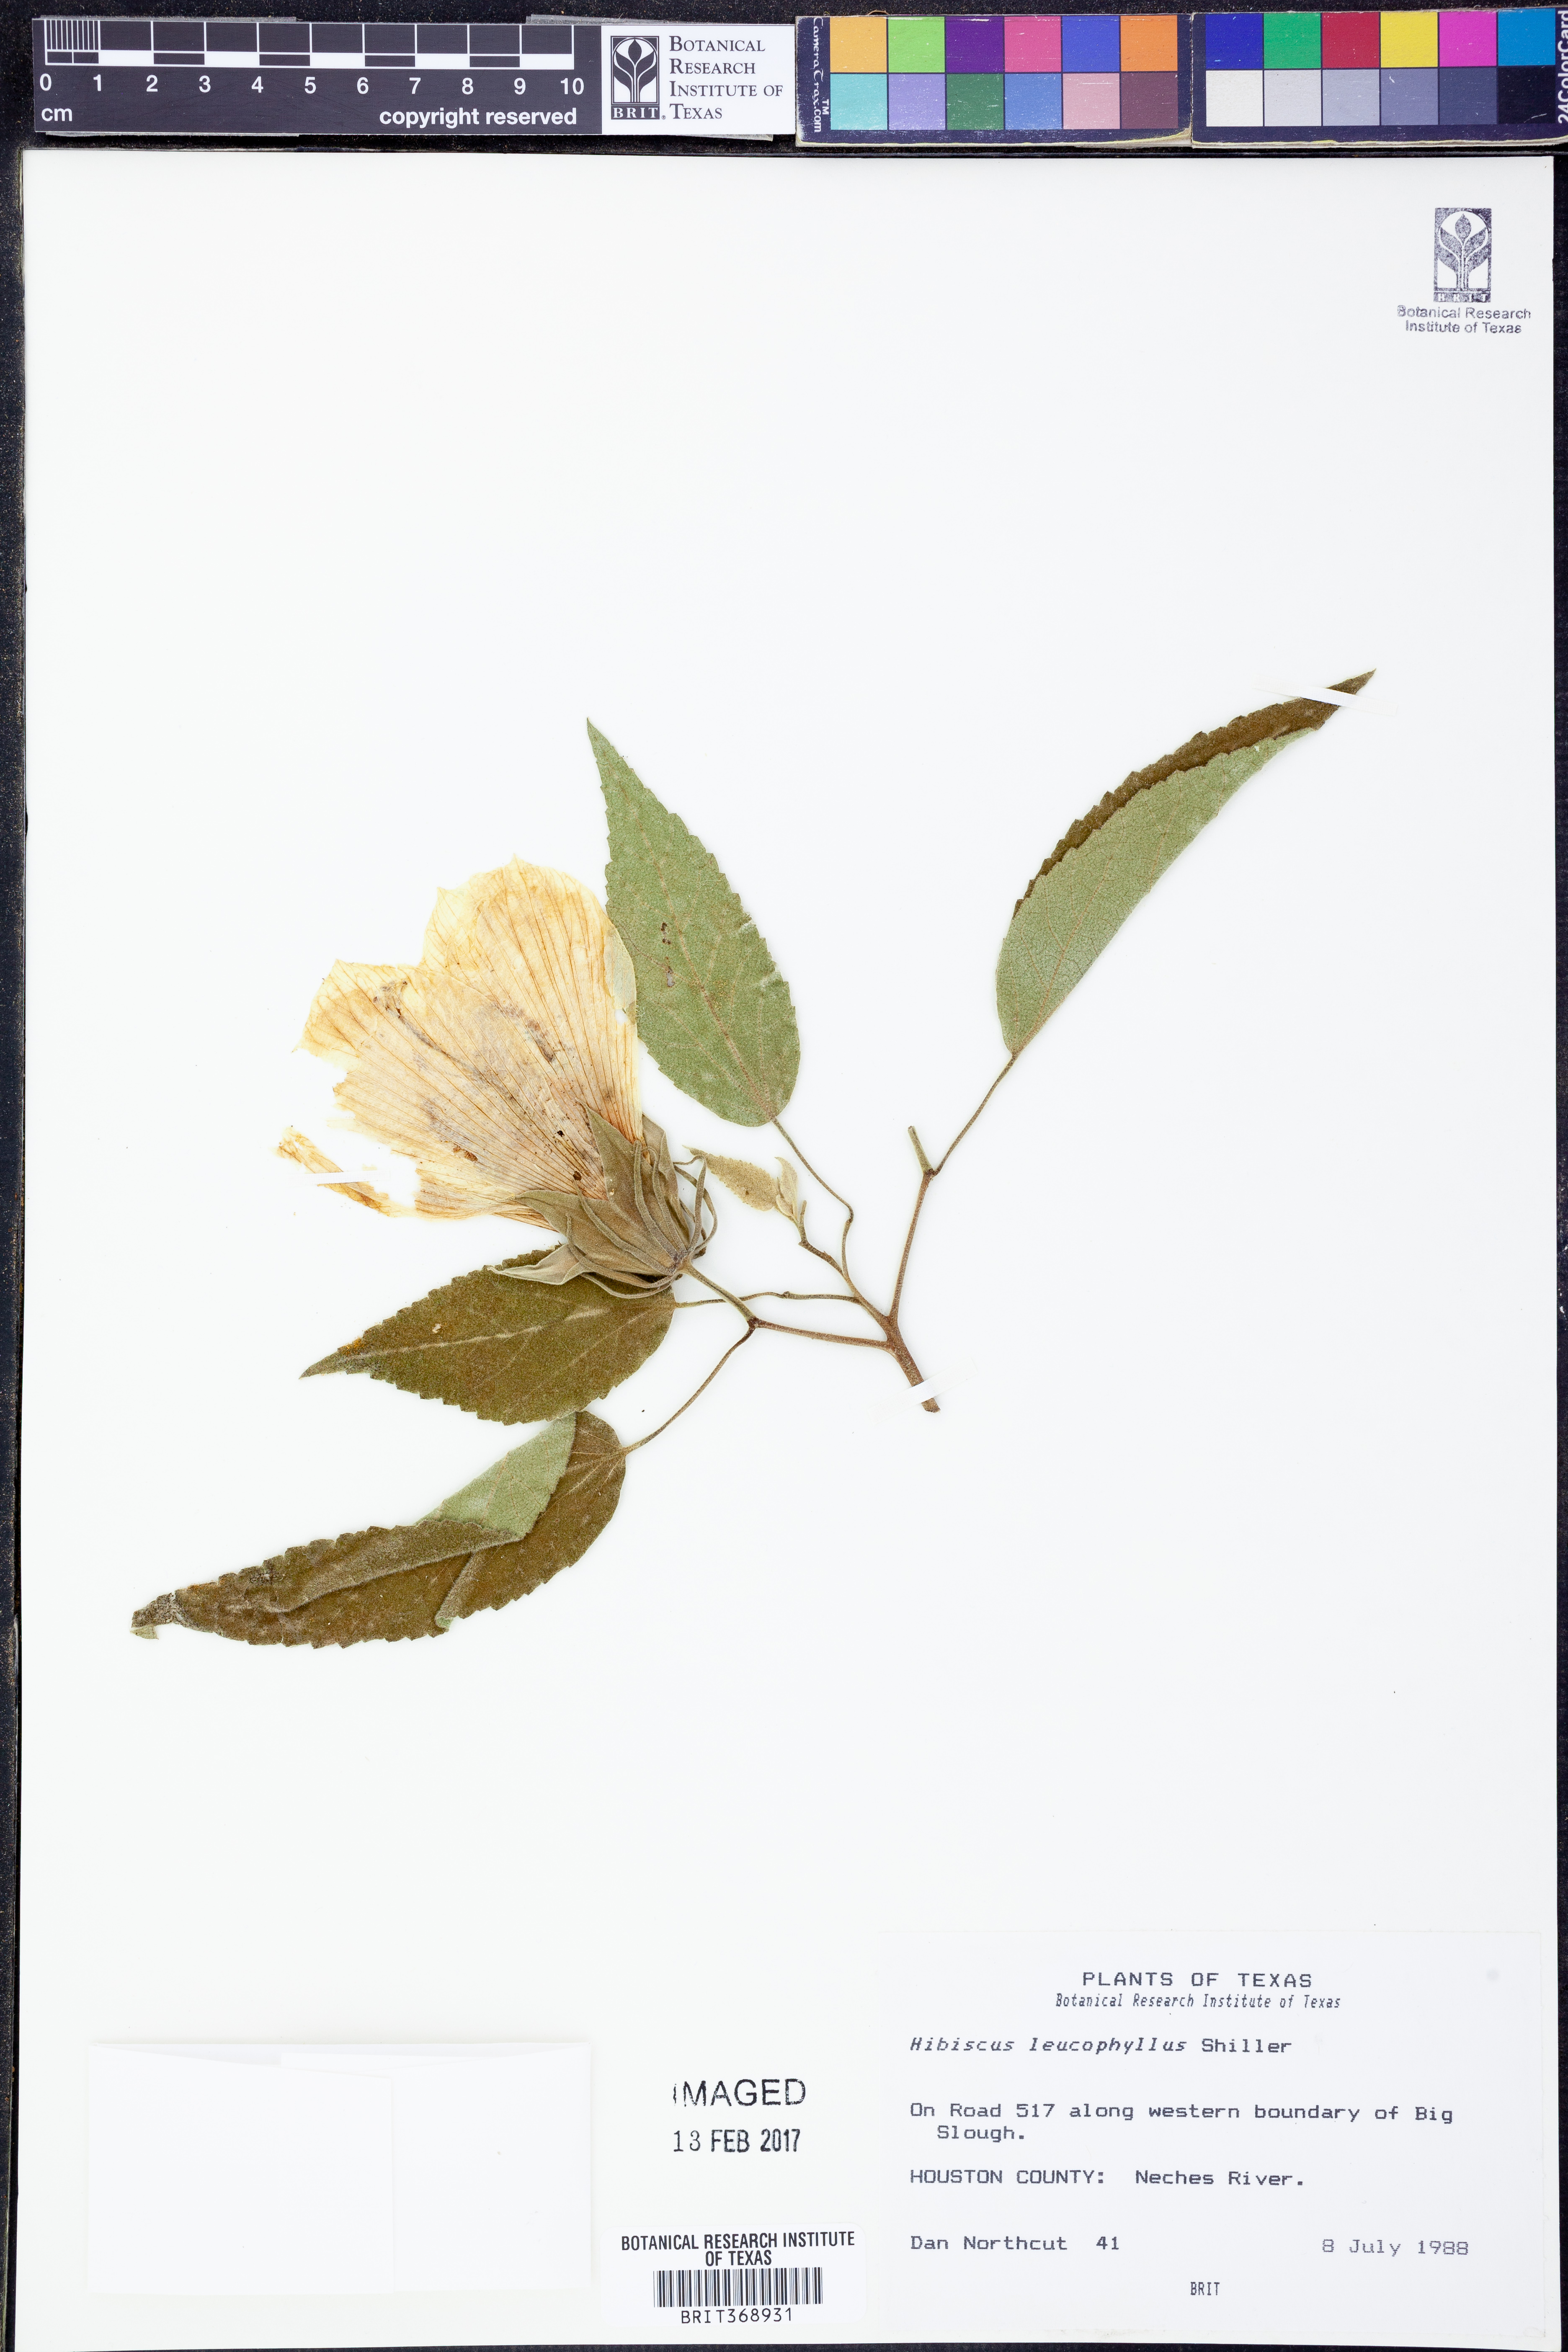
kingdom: Plantae
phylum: Tracheophyta
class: Magnoliopsida
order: Malvales
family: Malvaceae
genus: Hibiscus
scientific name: Hibiscus moscheutos
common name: Common rose-mallow
